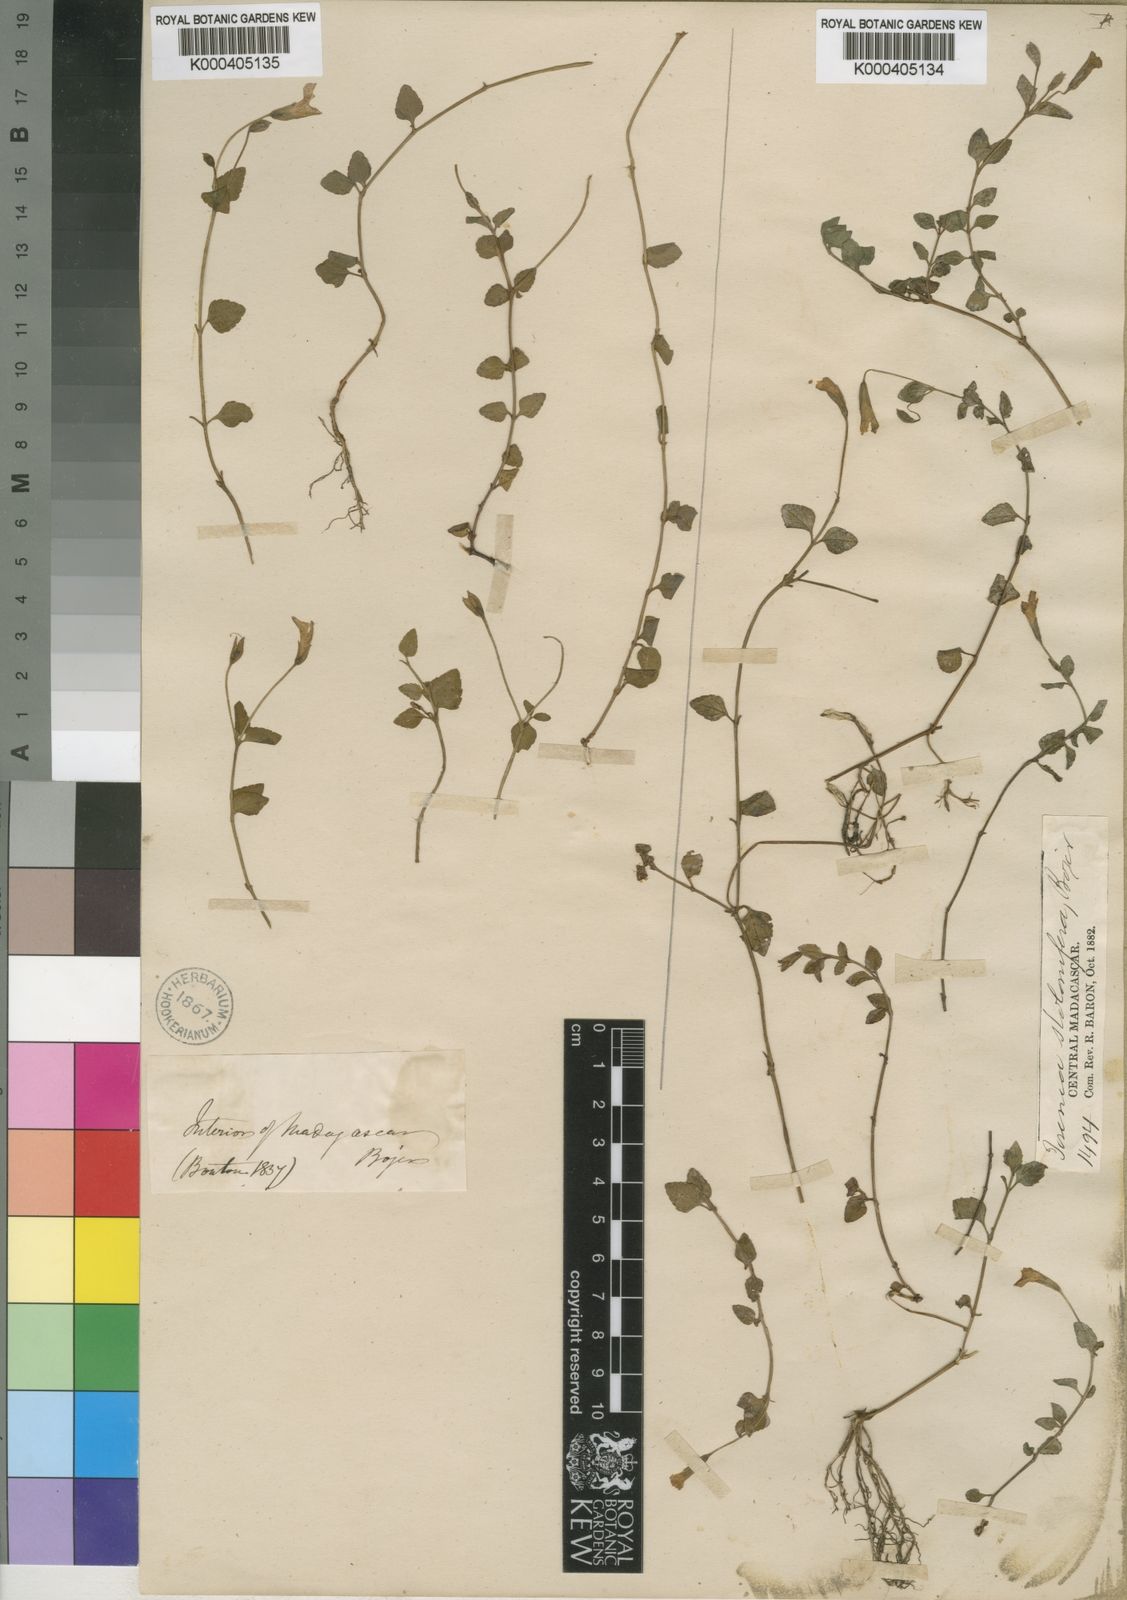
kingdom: Plantae
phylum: Tracheophyta
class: Magnoliopsida
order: Lamiales
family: Linderniaceae
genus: Torenia
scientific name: Torenia stolonifera
